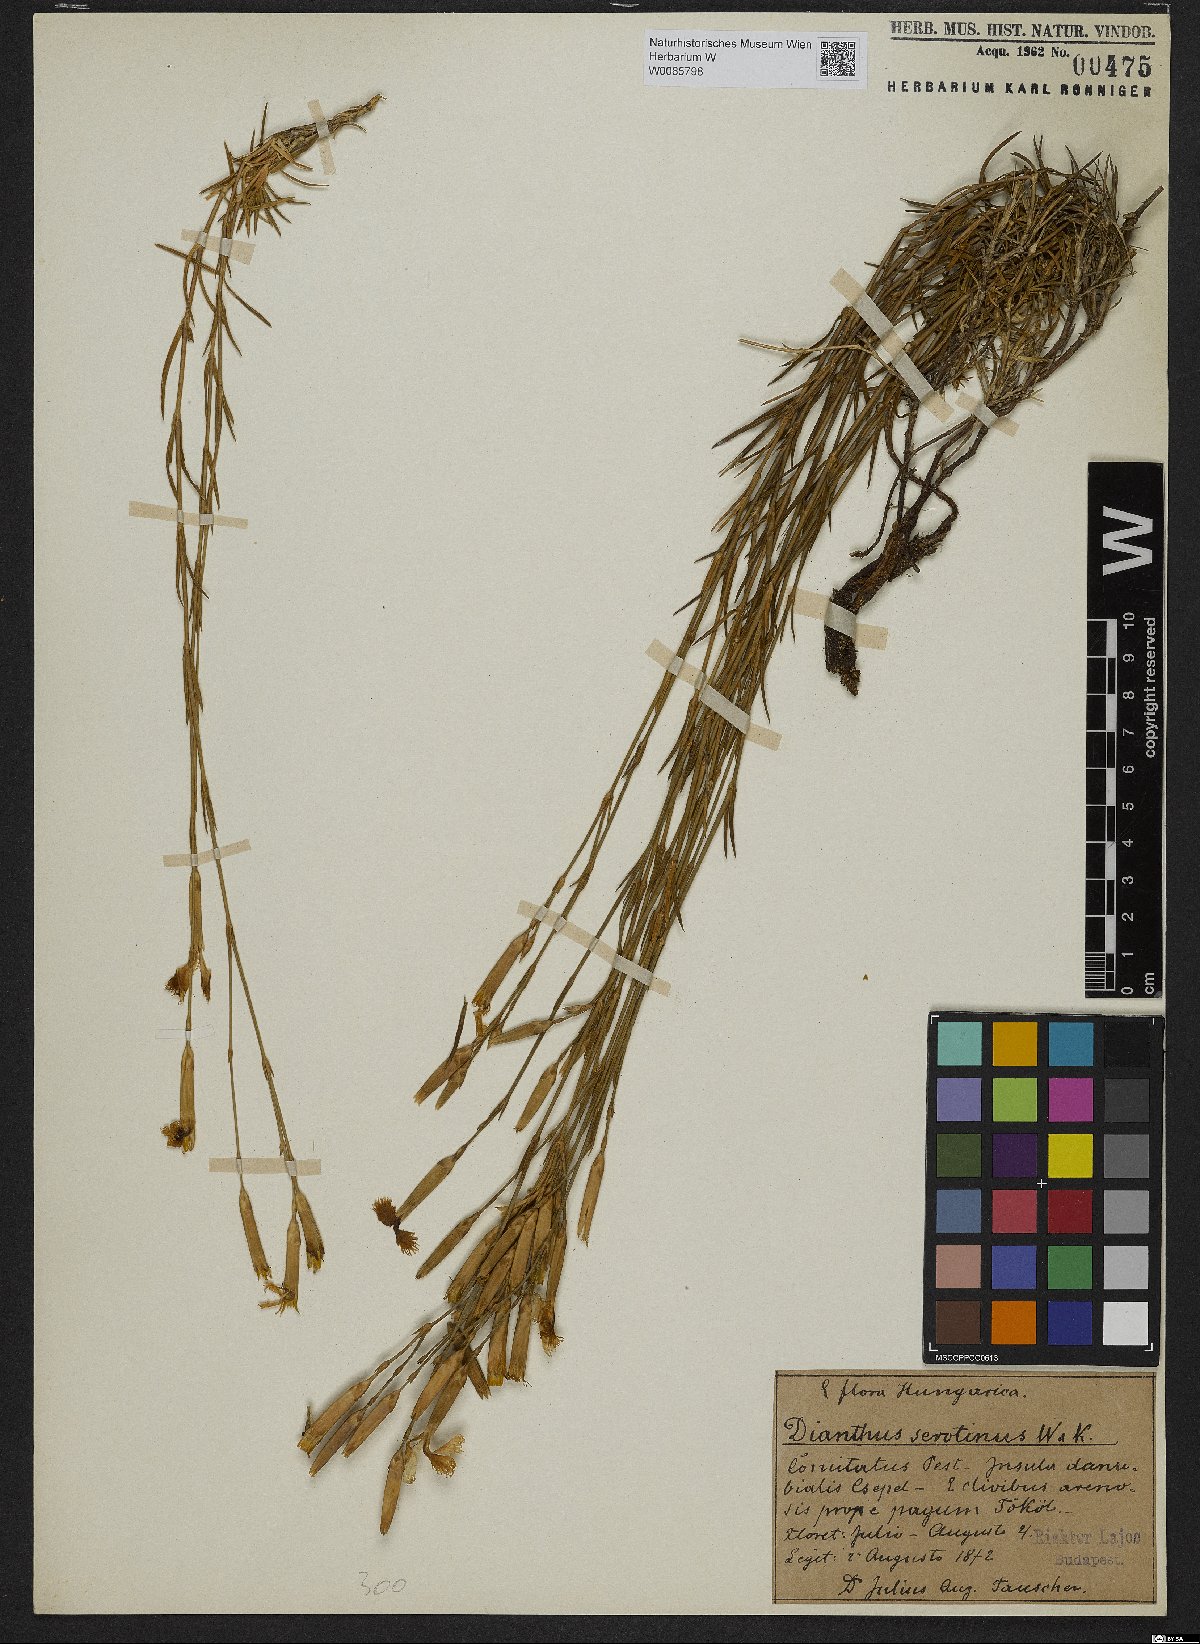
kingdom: Plantae
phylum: Tracheophyta
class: Magnoliopsida
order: Caryophyllales
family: Caryophyllaceae
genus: Dianthus
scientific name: Dianthus serotinus
